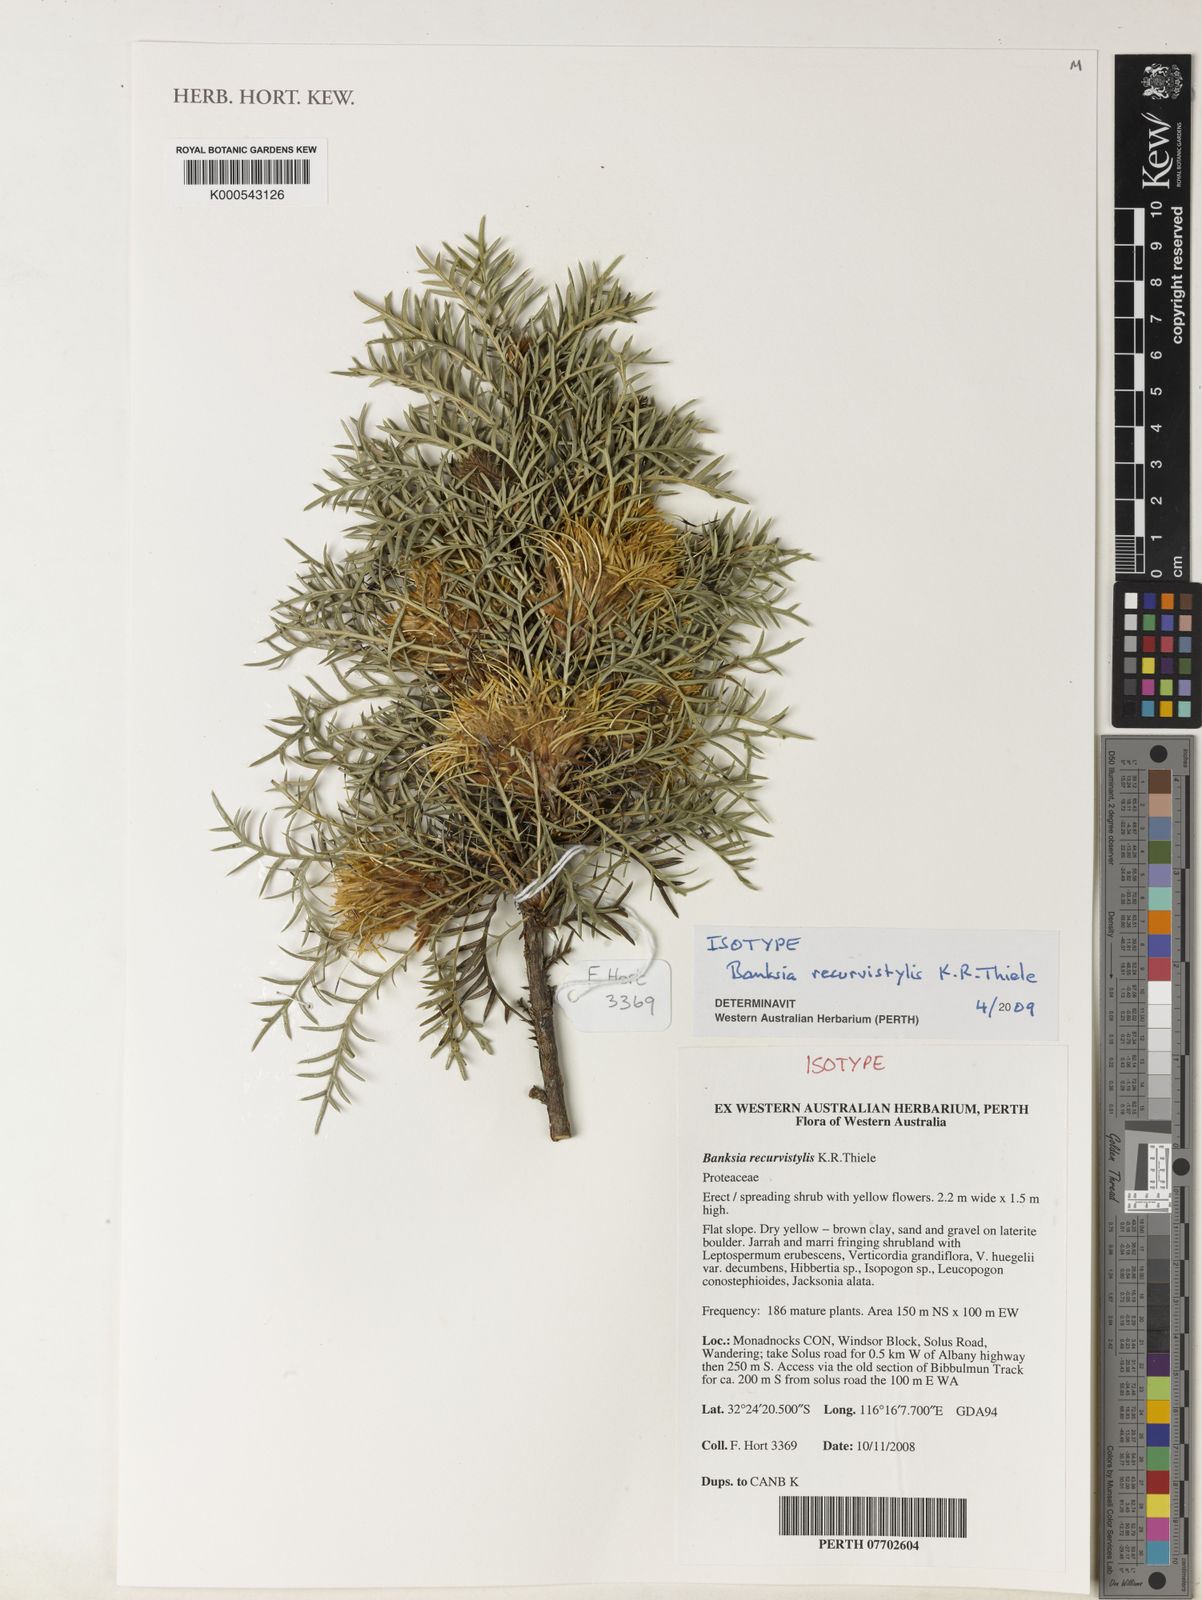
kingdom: Plantae
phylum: Tracheophyta
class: Magnoliopsida
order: Proteales
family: Proteaceae
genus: Banksia
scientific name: Banksia recurvistylis
